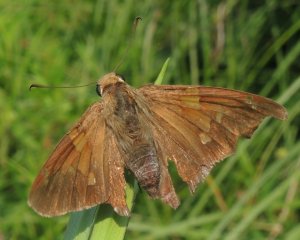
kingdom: Animalia
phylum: Arthropoda
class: Insecta
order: Lepidoptera
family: Hesperiidae
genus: Epargyreus
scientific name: Epargyreus clarus
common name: Silver-spotted Skipper
